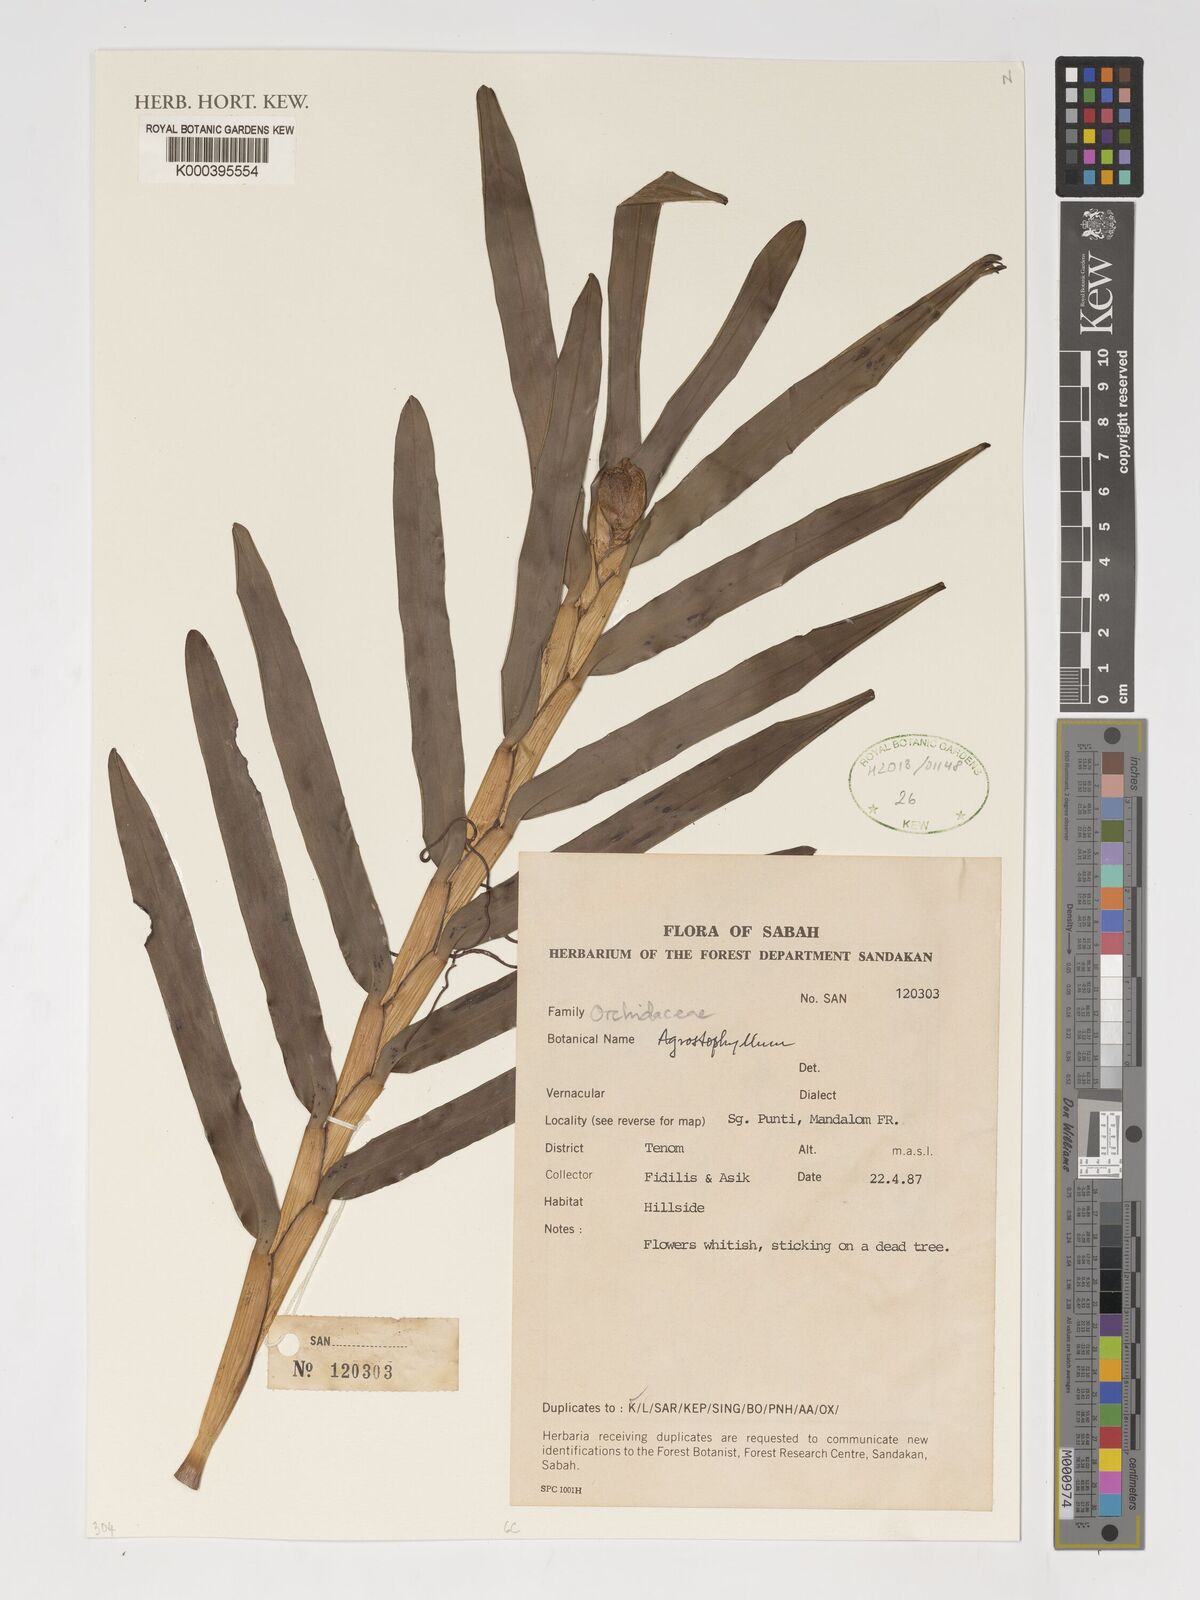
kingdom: Plantae
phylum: Tracheophyta
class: Liliopsida
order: Asparagales
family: Orchidaceae
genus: Agrostophyllum
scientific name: Agrostophyllum
